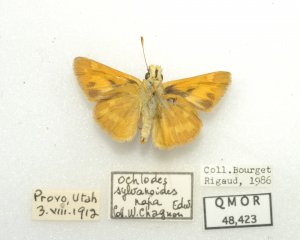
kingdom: Animalia
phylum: Arthropoda
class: Insecta
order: Lepidoptera
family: Hesperiidae
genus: Ochlodes
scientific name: Ochlodes sylvanoides
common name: Woodland Skipper
